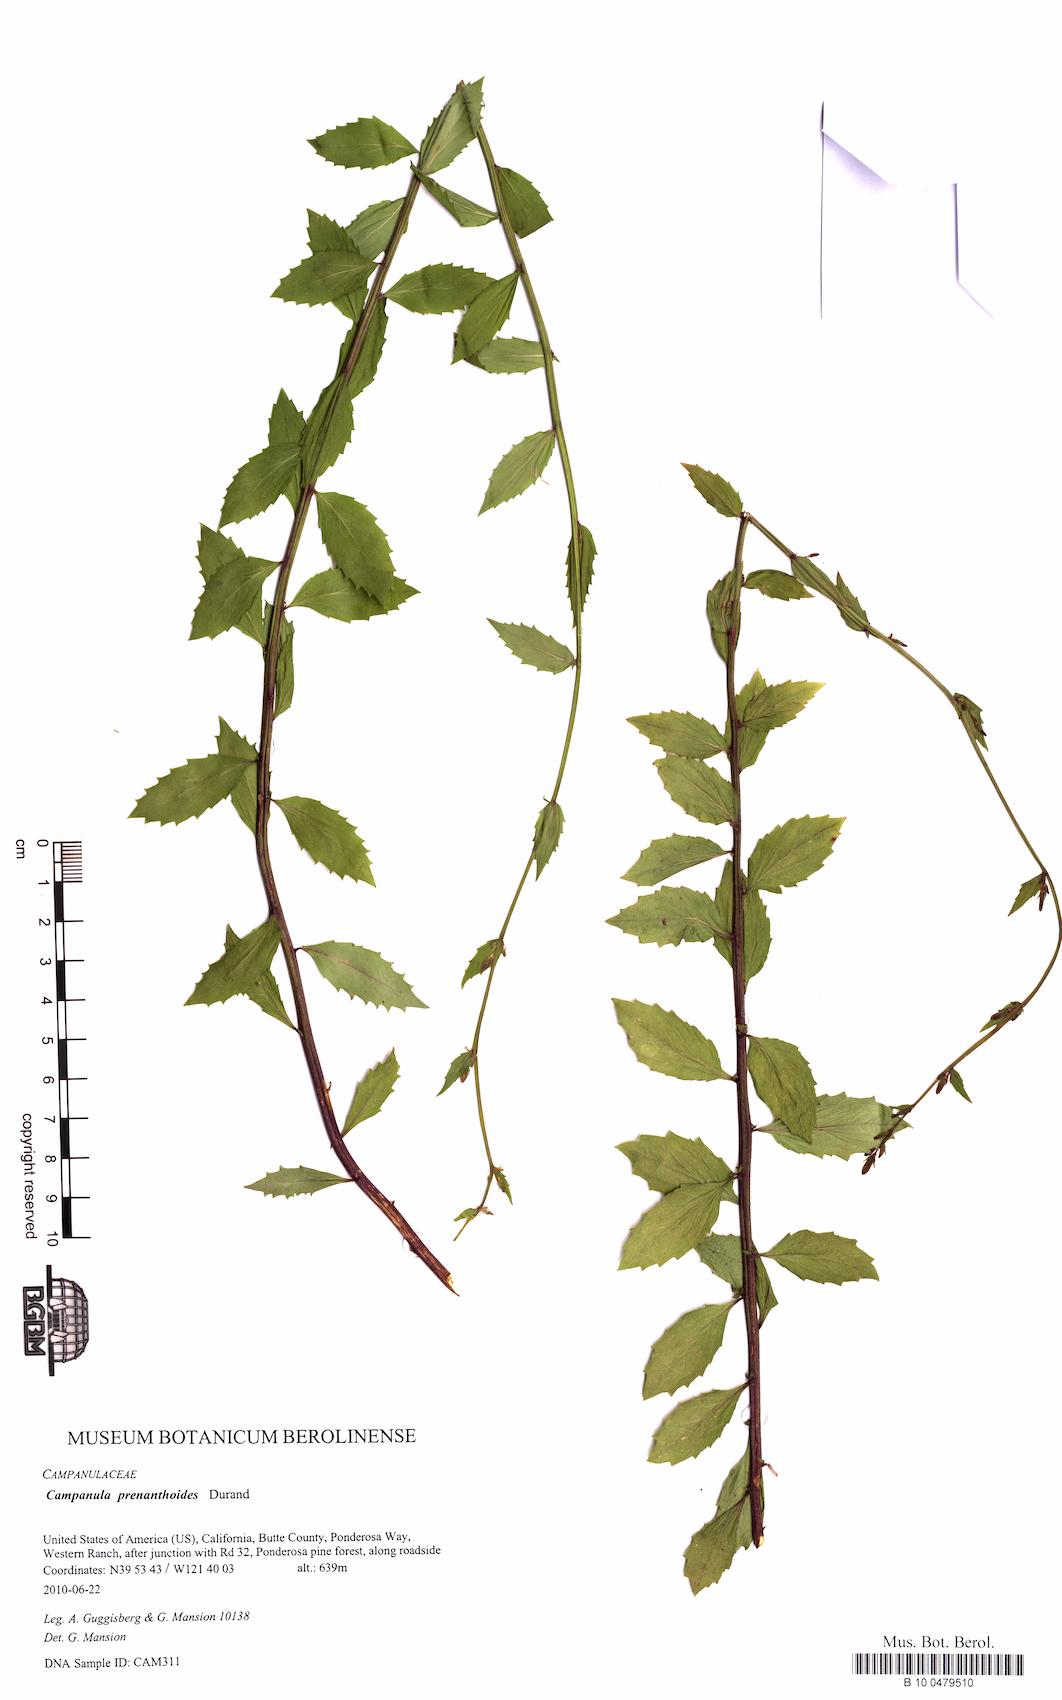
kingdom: Plantae
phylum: Tracheophyta
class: Magnoliopsida
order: Asterales
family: Campanulaceae
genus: Smithiastrum
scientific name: Smithiastrum prenanthoides
